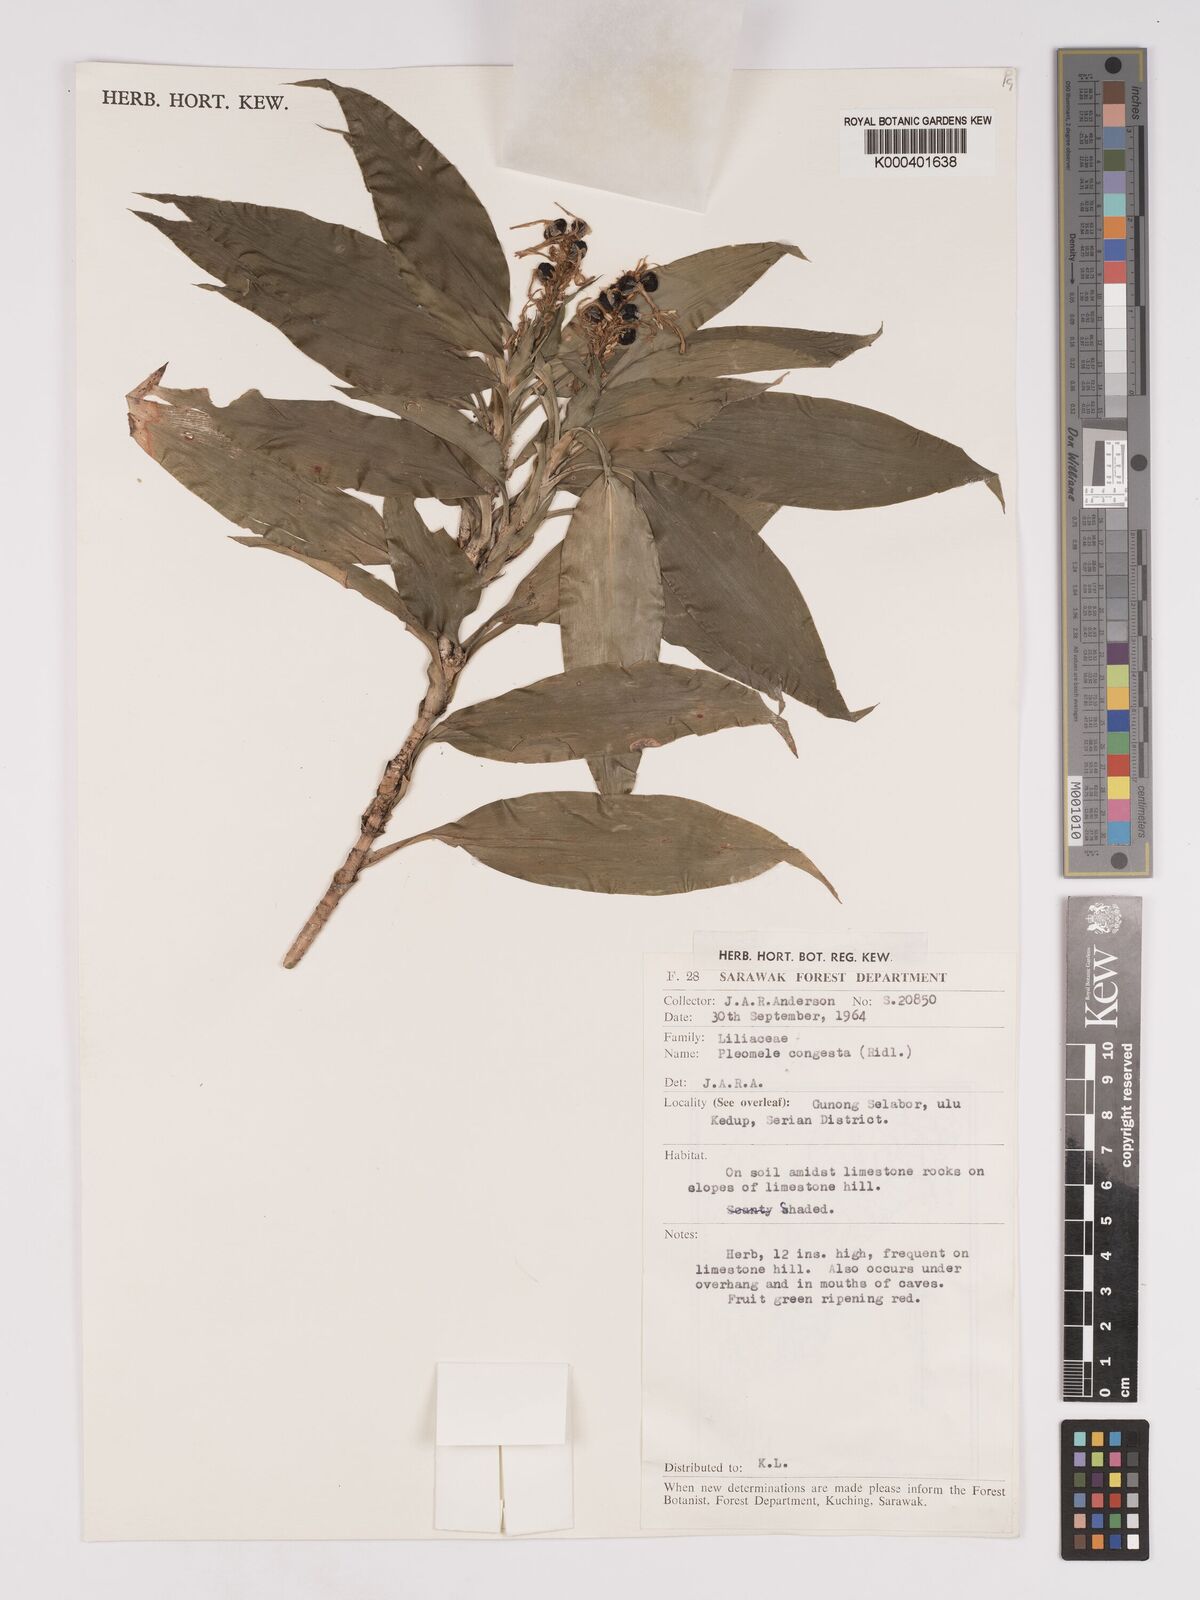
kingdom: Plantae
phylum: Tracheophyta
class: Liliopsida
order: Asparagales
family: Asparagaceae
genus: Dracaena
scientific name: Dracaena chiniana
